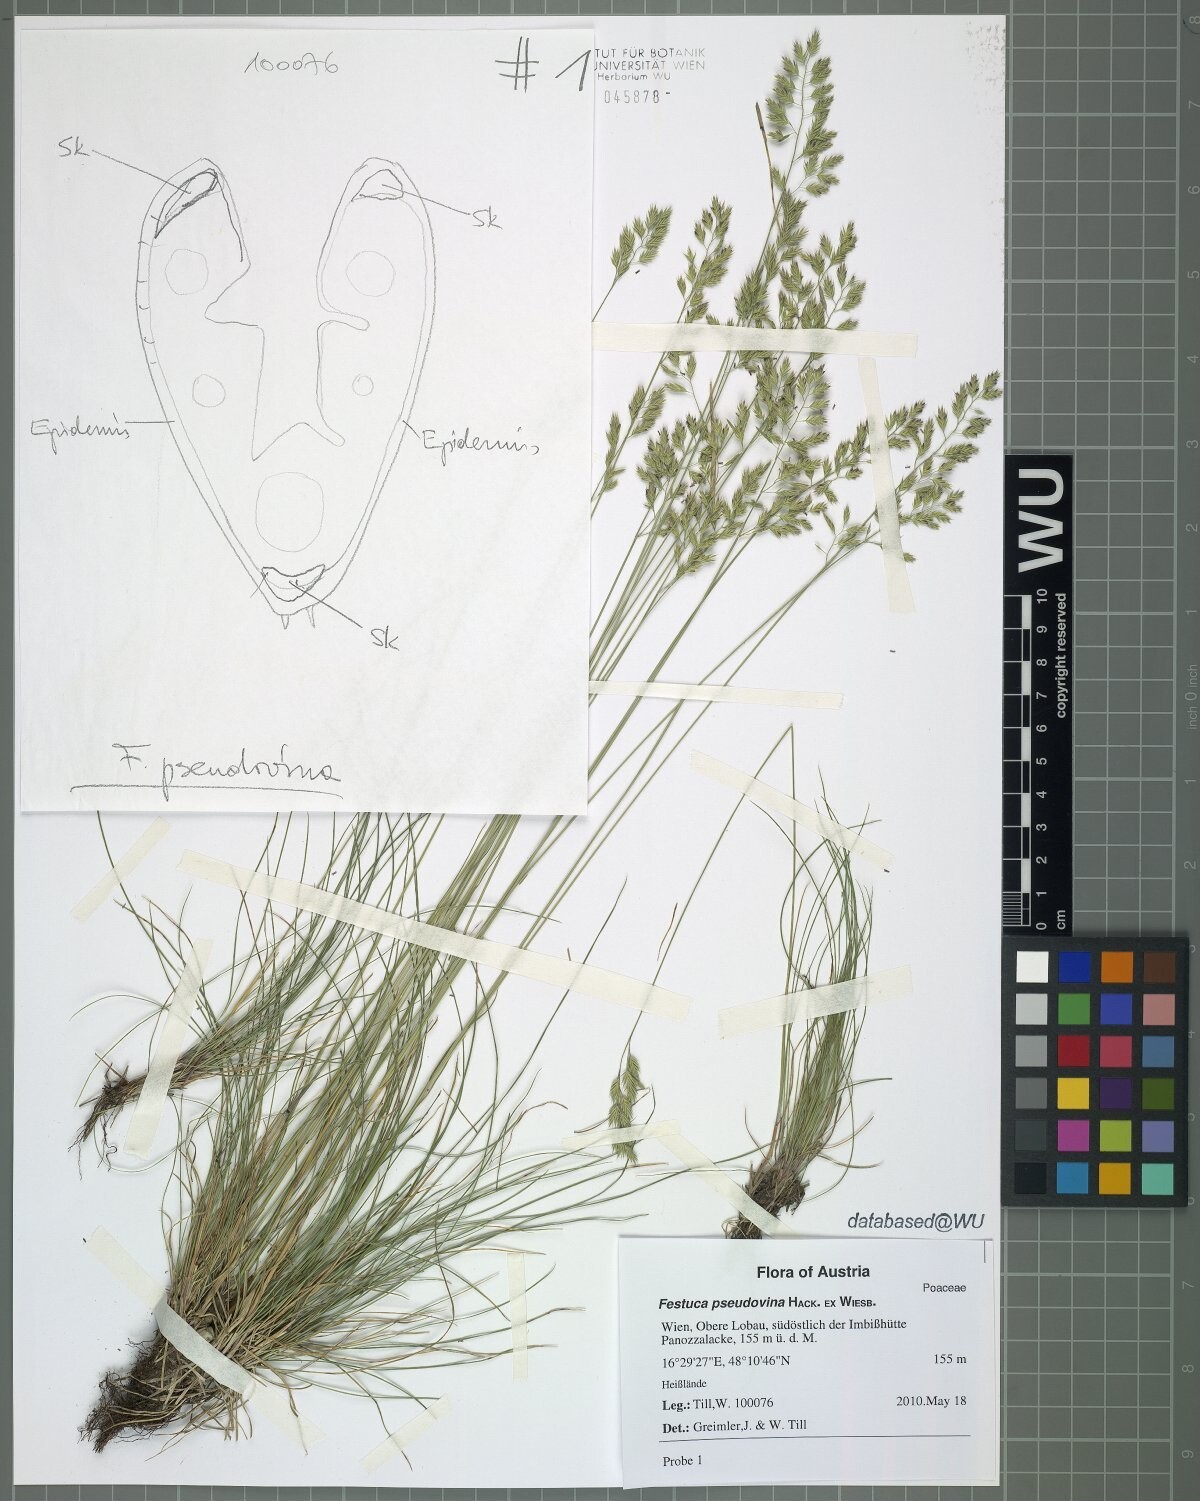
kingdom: Plantae
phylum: Tracheophyta
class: Liliopsida
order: Poales
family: Poaceae
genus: Festuca
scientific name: Festuca pulchra
